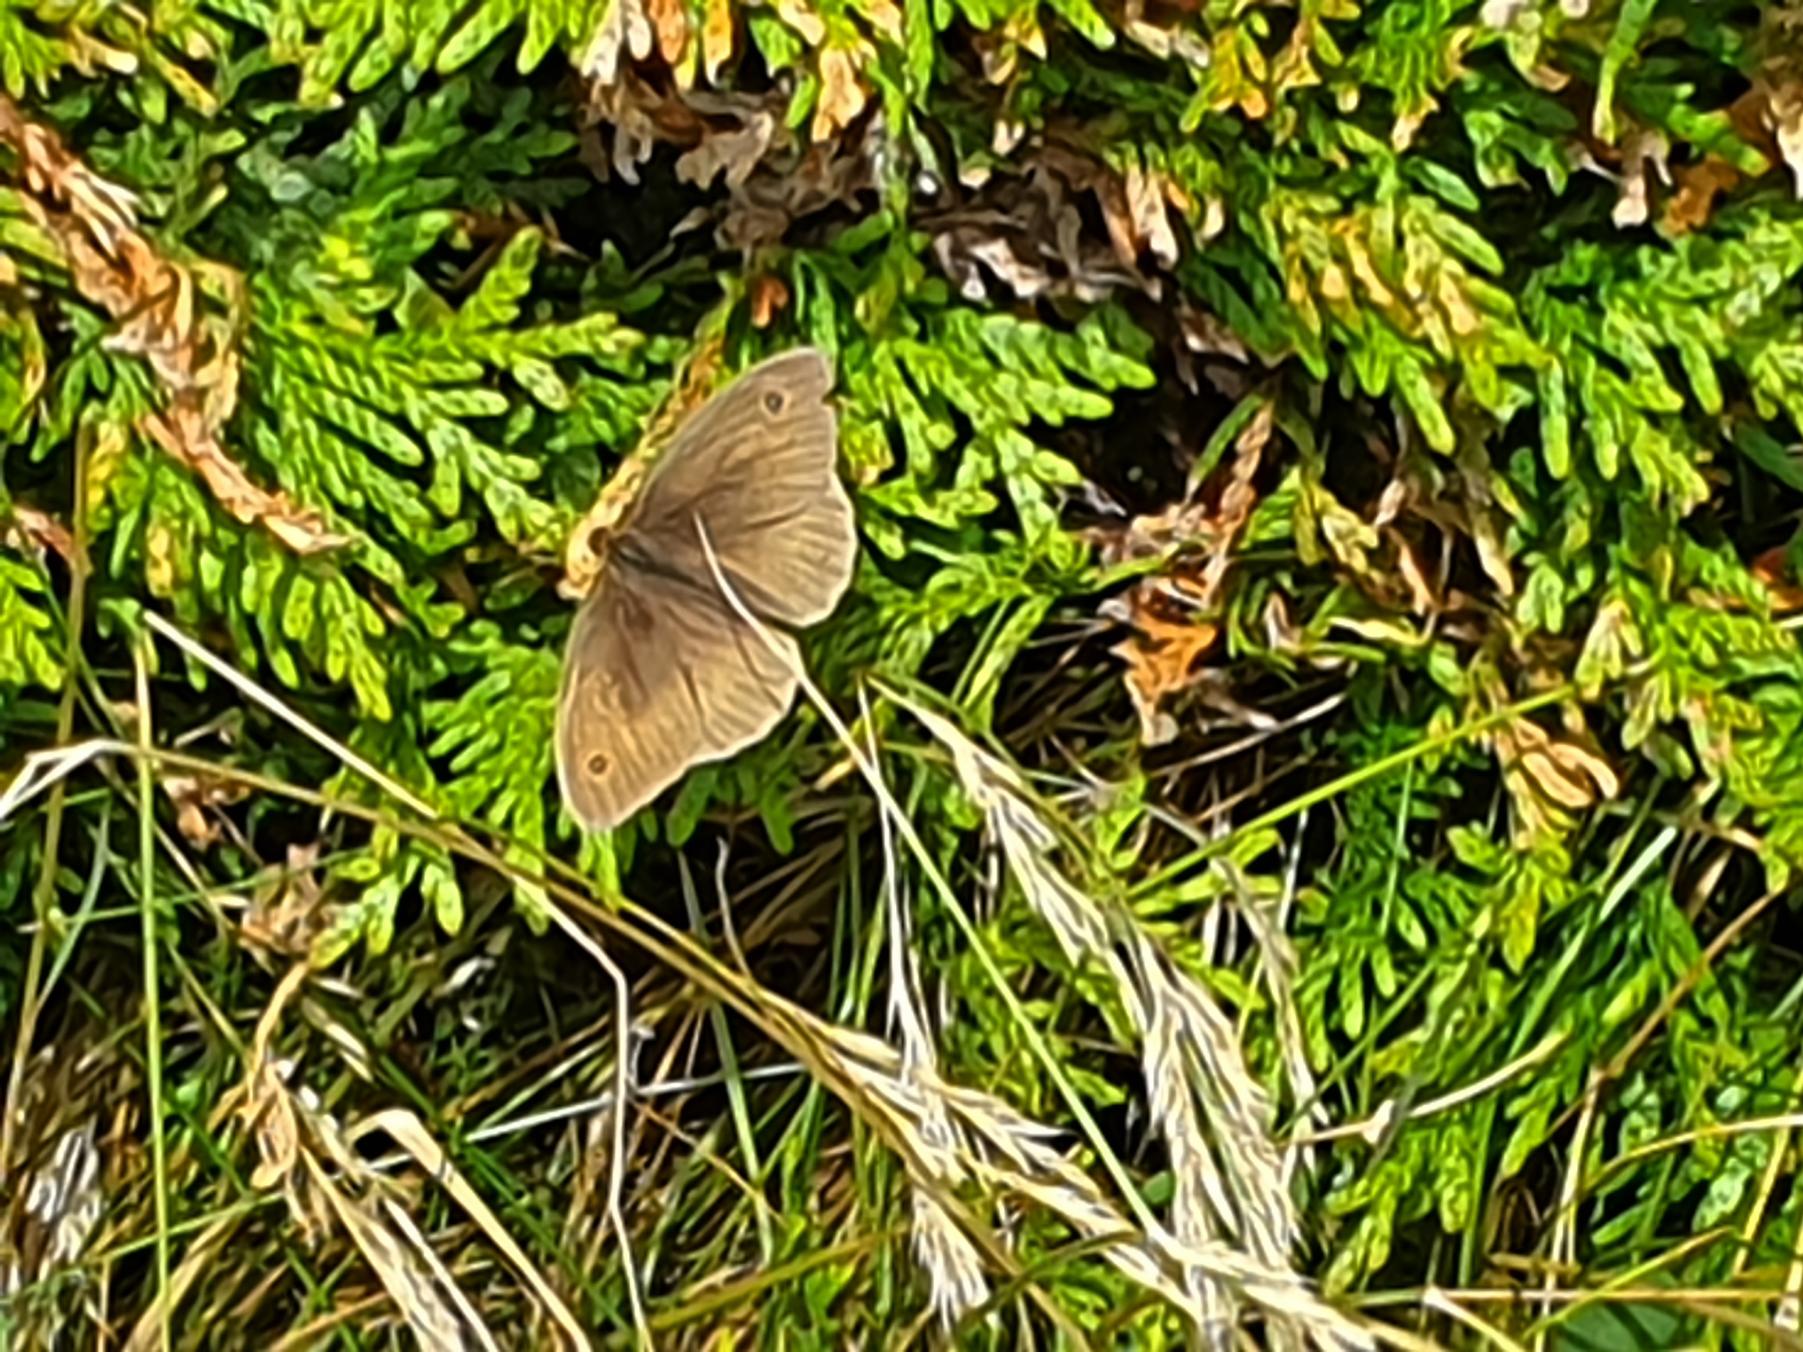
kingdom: Animalia
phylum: Arthropoda
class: Insecta
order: Lepidoptera
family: Nymphalidae
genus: Maniola
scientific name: Maniola jurtina
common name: Græsrandøje
